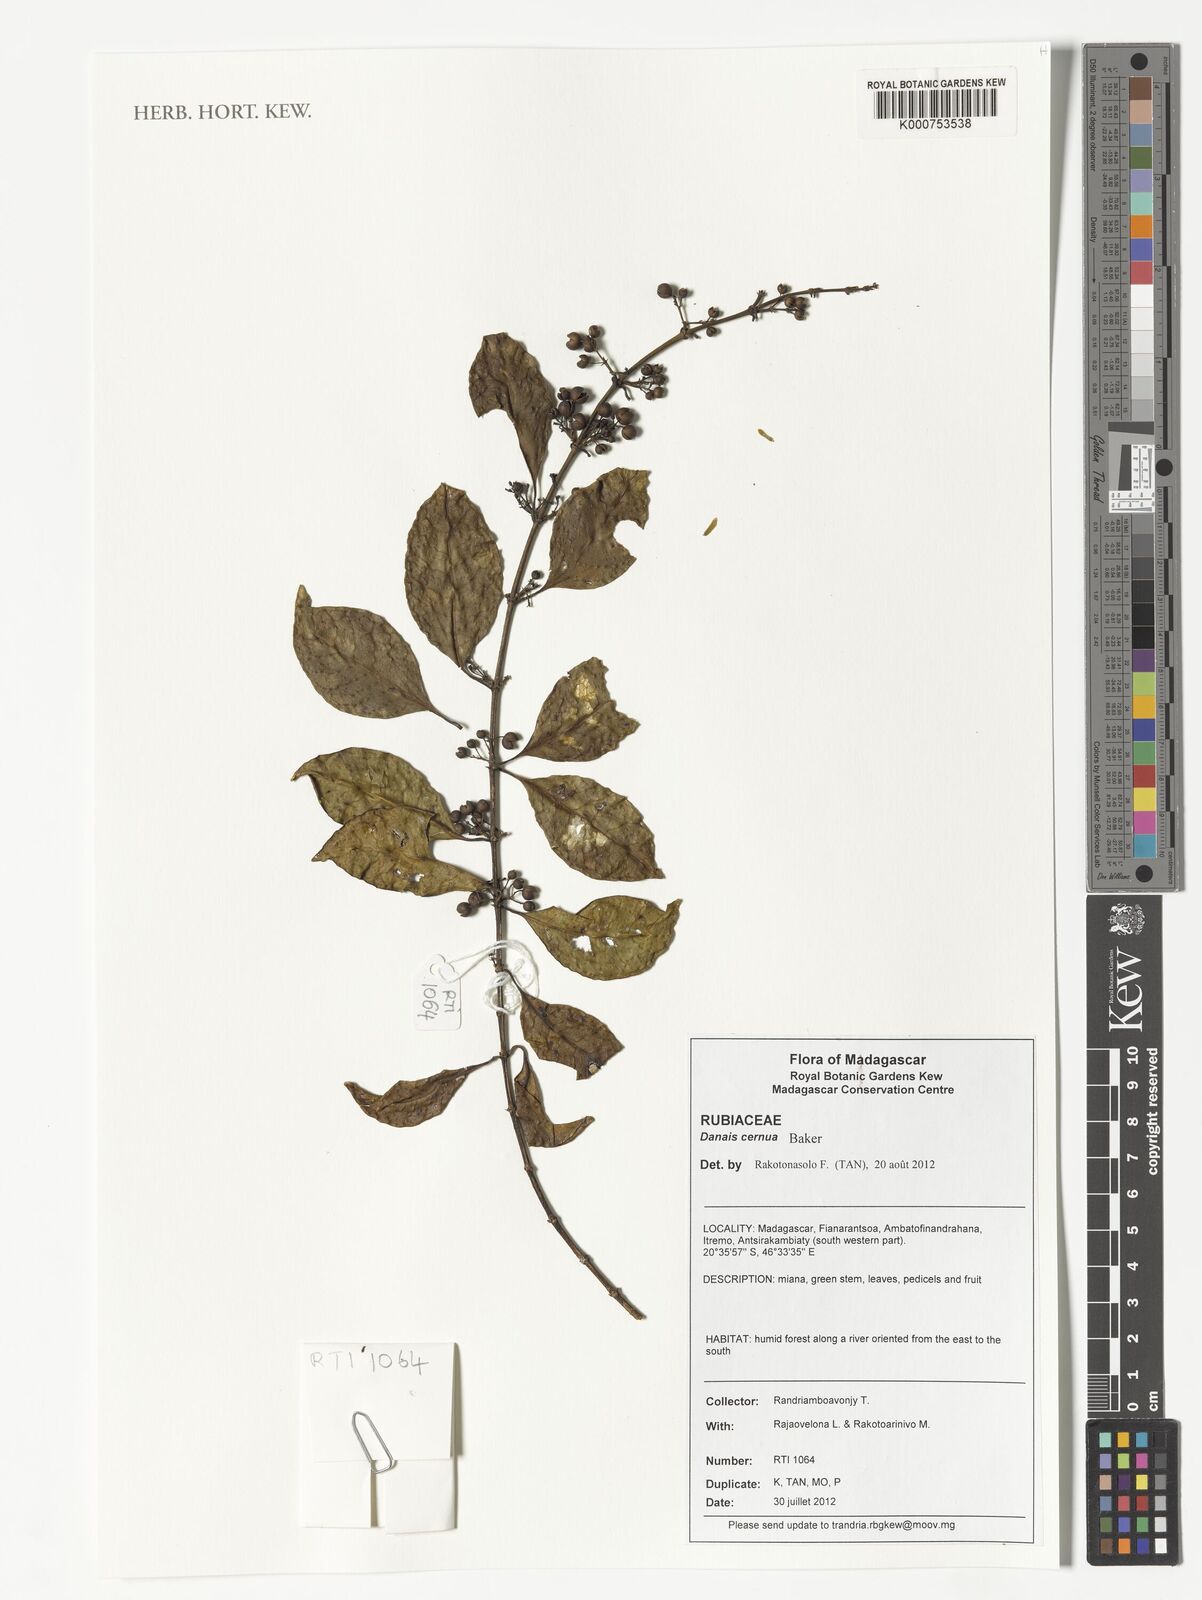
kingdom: Plantae
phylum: Tracheophyta
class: Magnoliopsida
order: Gentianales
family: Rubiaceae
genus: Danais
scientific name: Danais cernua
